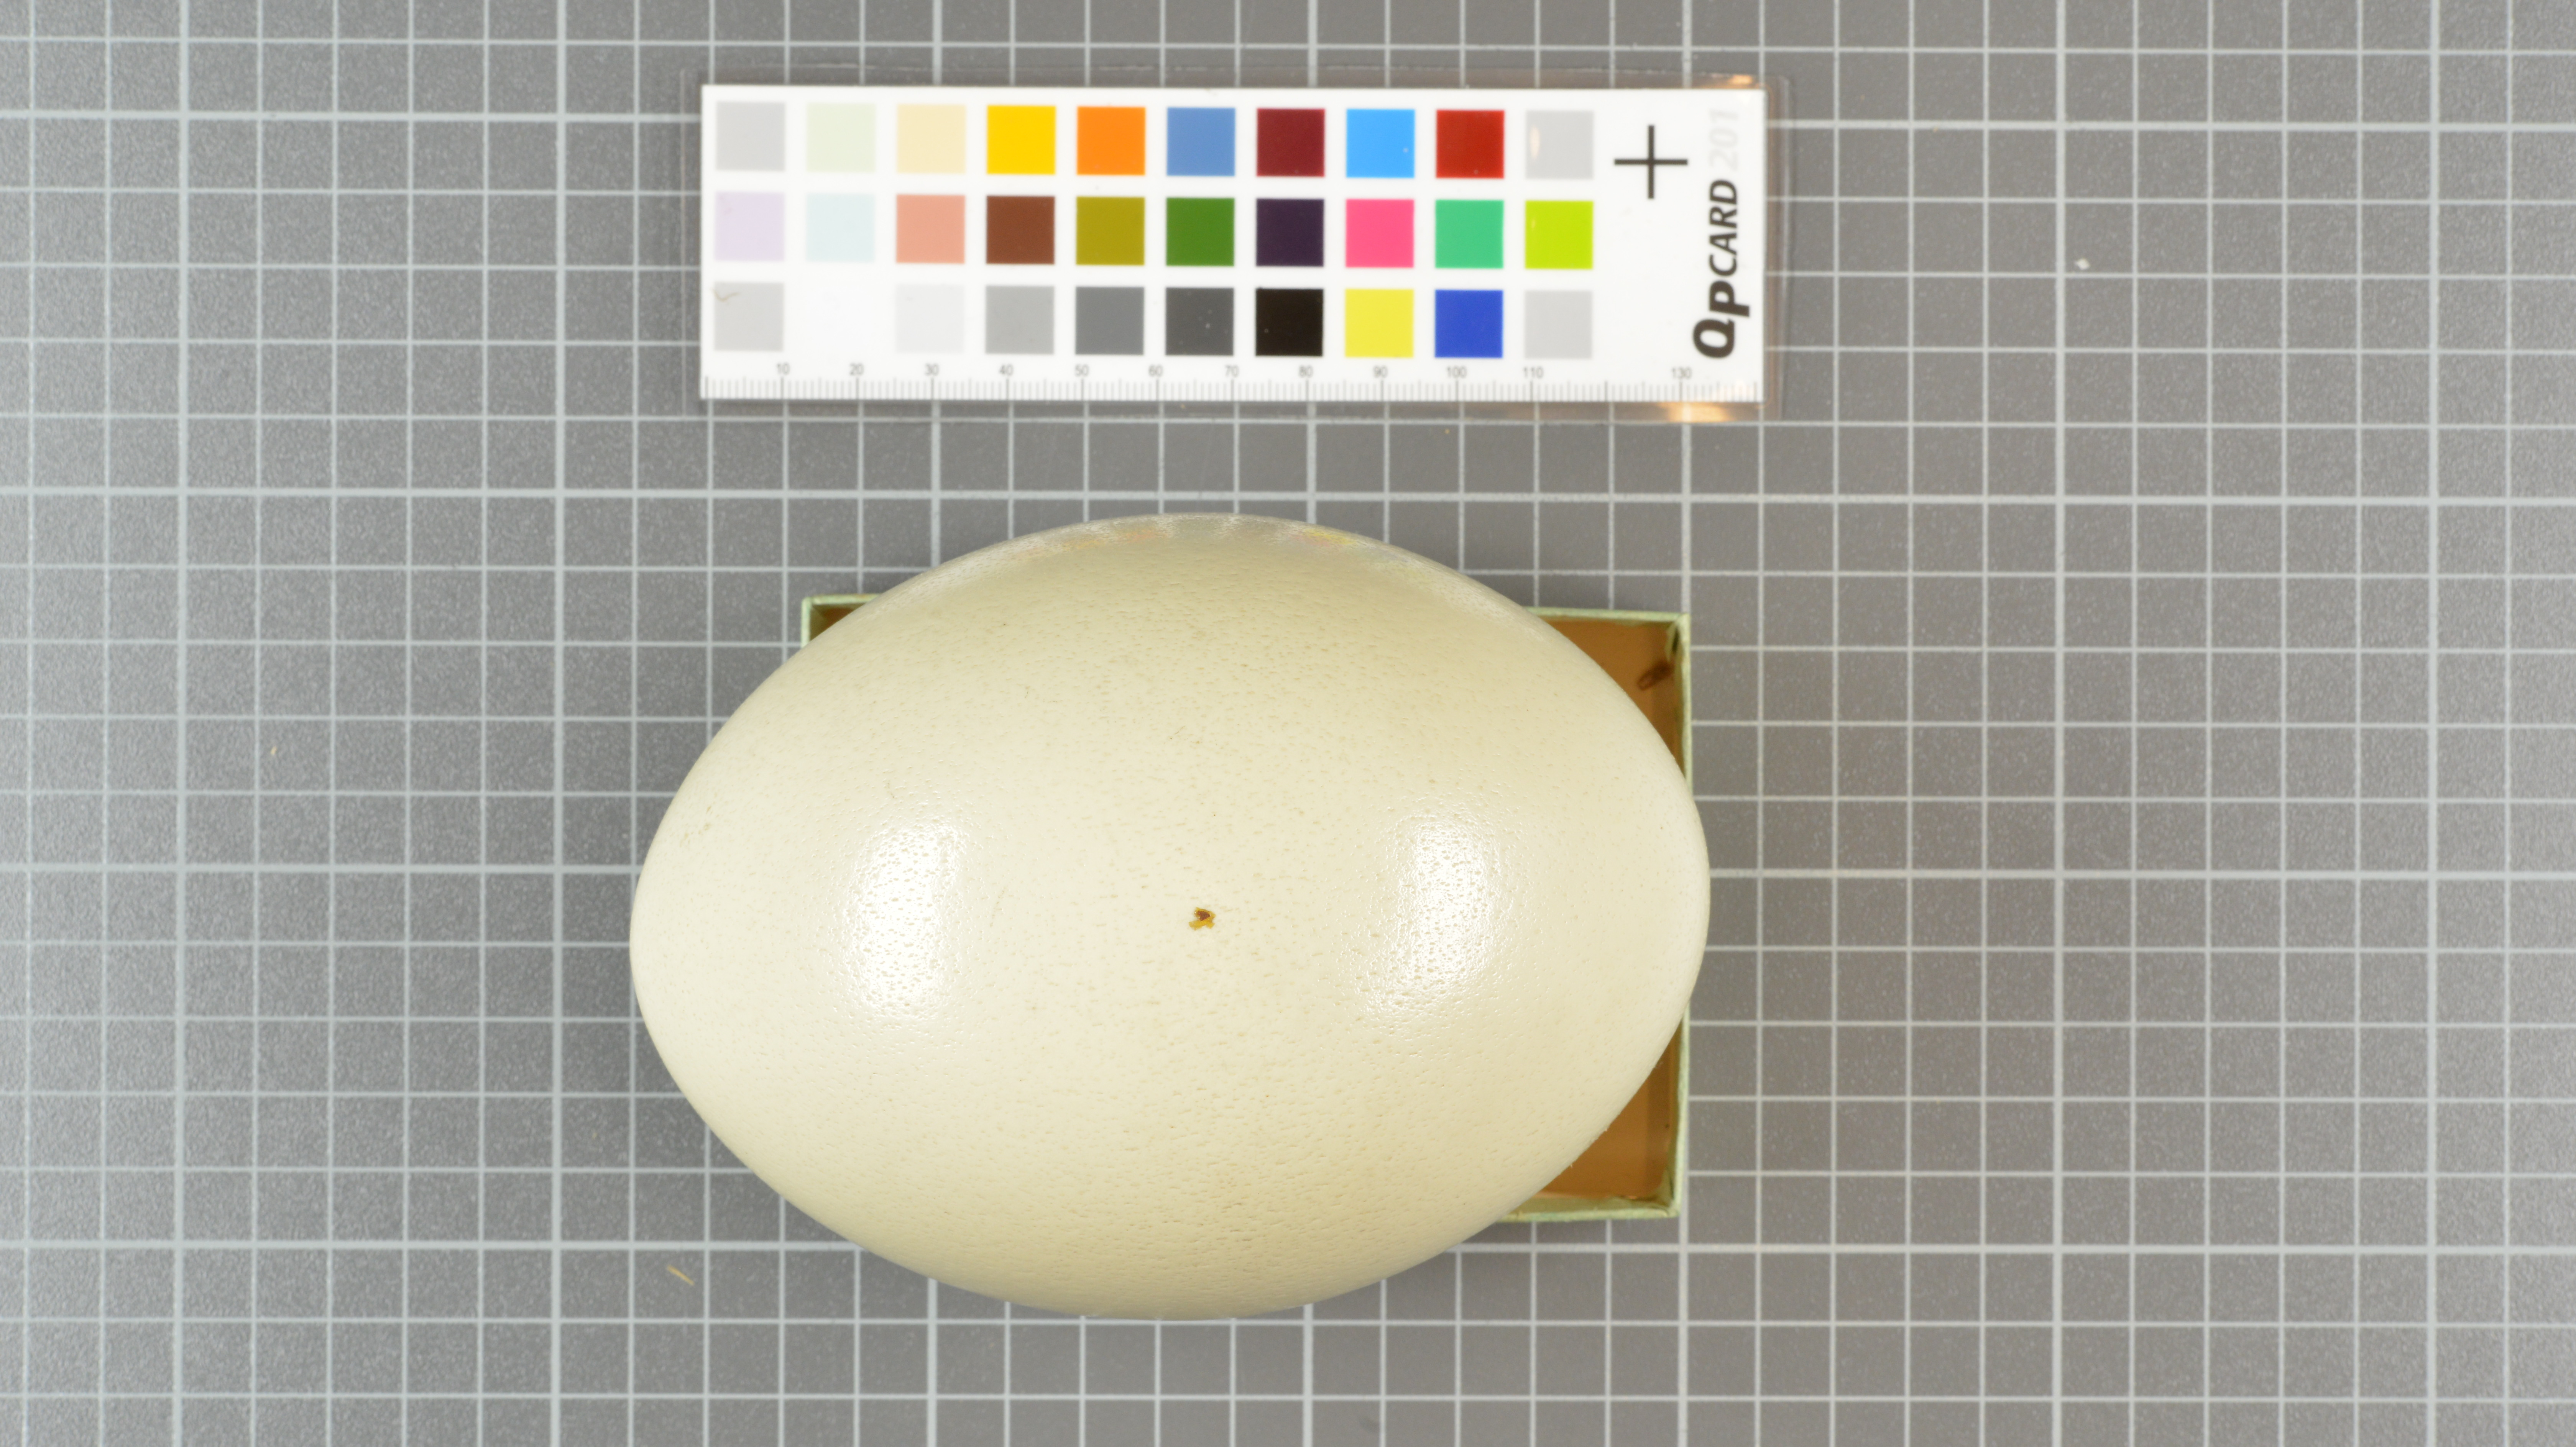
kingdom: Animalia
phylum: Chordata
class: Aves
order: Struthioniformes
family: Struthionidae
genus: Struthio
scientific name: Struthio camelus
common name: Common ostrich
